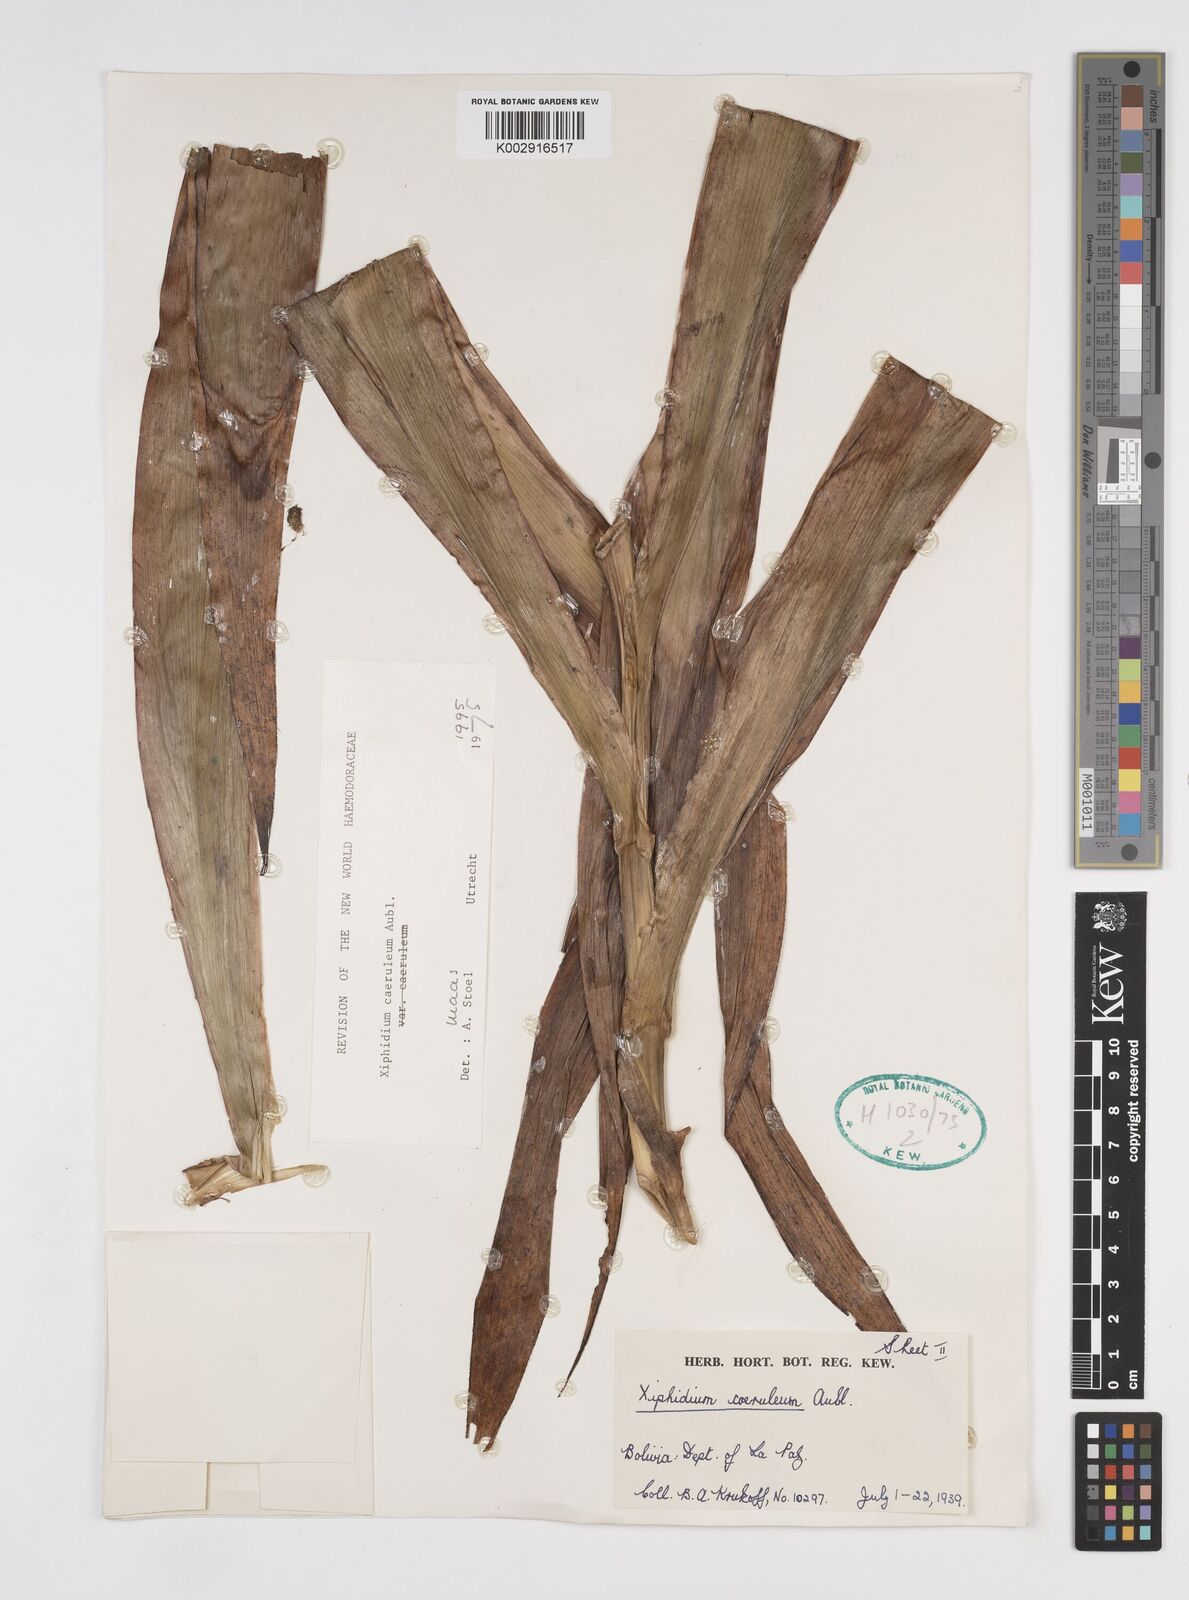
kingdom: Plantae
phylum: Tracheophyta
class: Liliopsida
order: Commelinales
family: Haemodoraceae
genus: Xiphidium
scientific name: Xiphidium caeruleum
